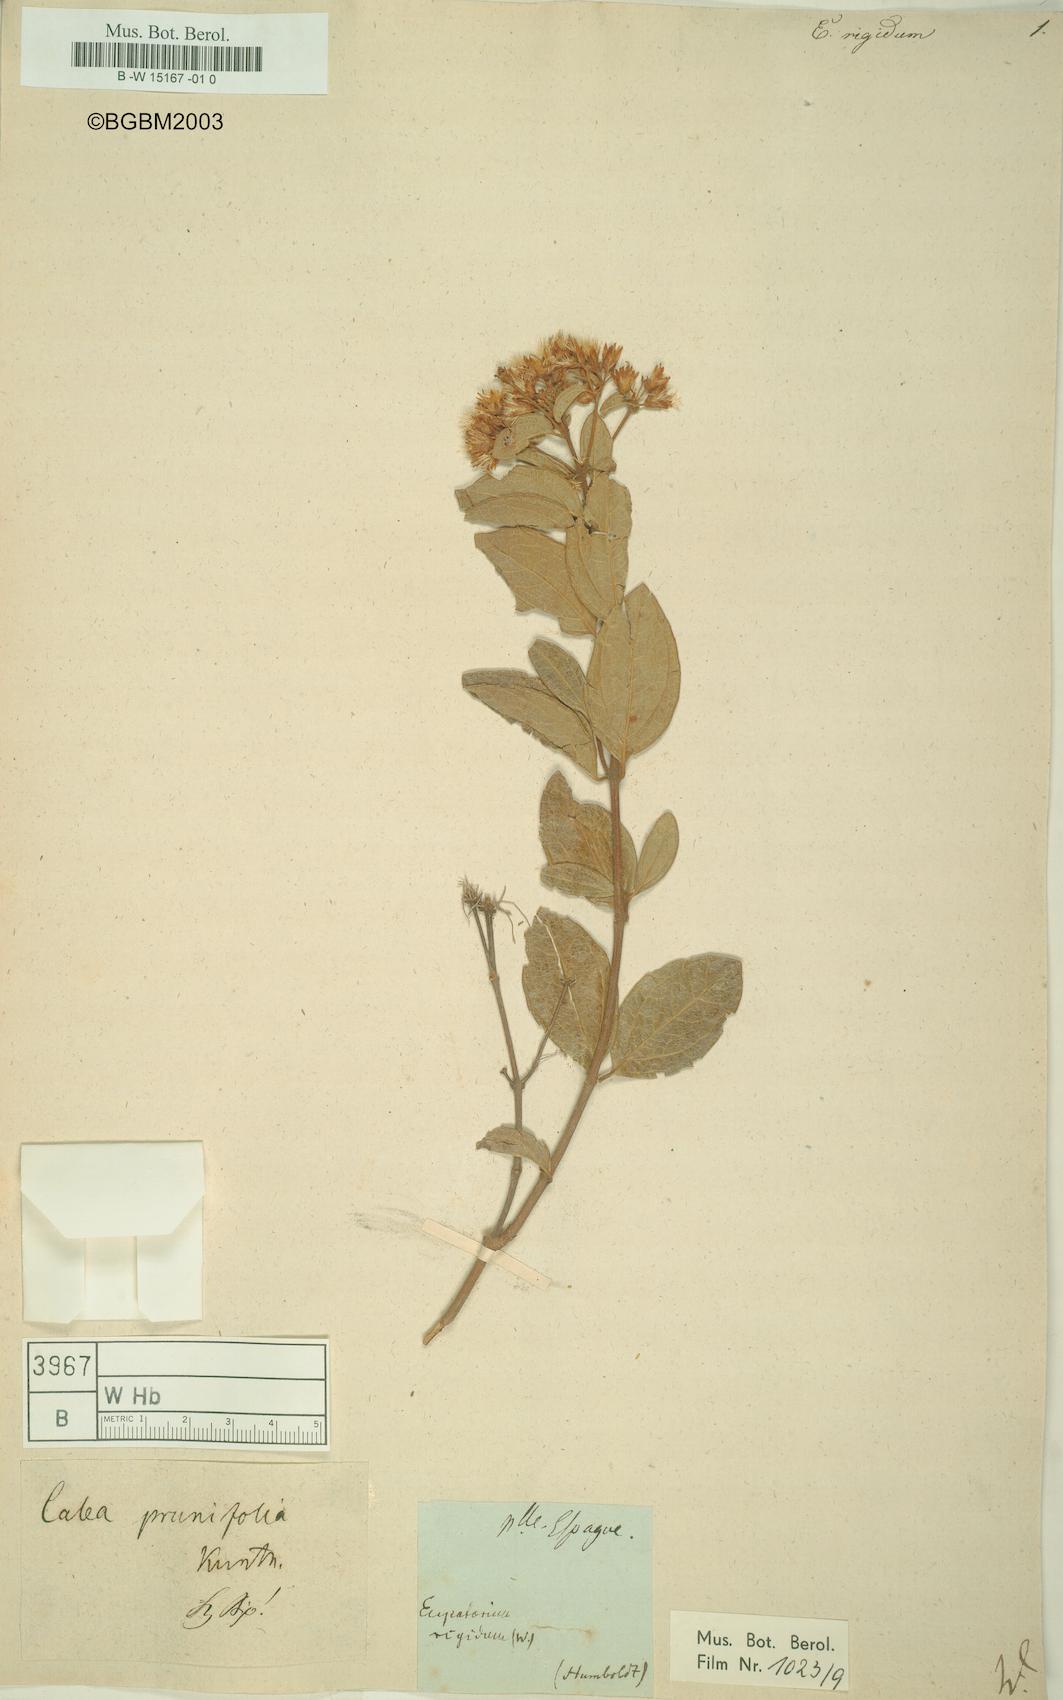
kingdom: Plantae
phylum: Tracheophyta
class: Magnoliopsida
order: Asterales
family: Asteraceae
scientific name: Asteraceae
